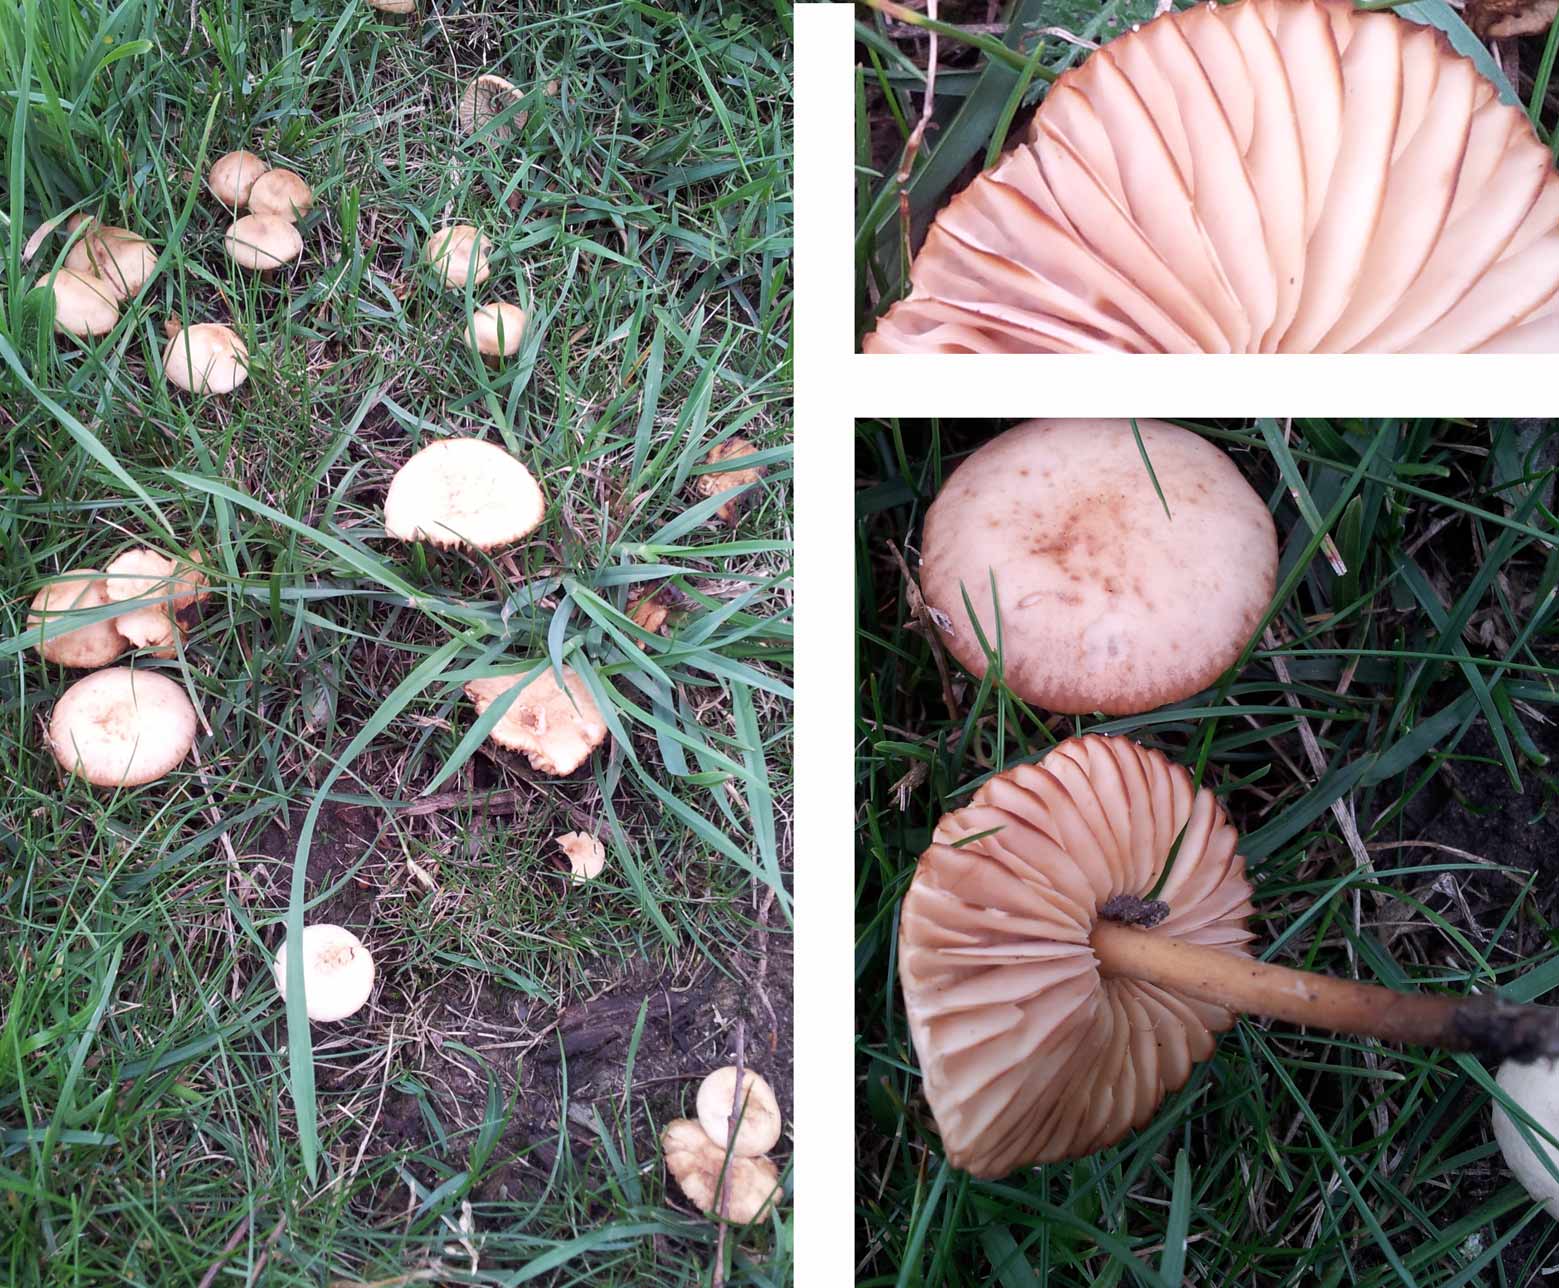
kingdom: Fungi
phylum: Basidiomycota
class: Agaricomycetes
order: Agaricales
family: Marasmiaceae
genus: Marasmius
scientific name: Marasmius oreades
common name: elledans-bruskhat
